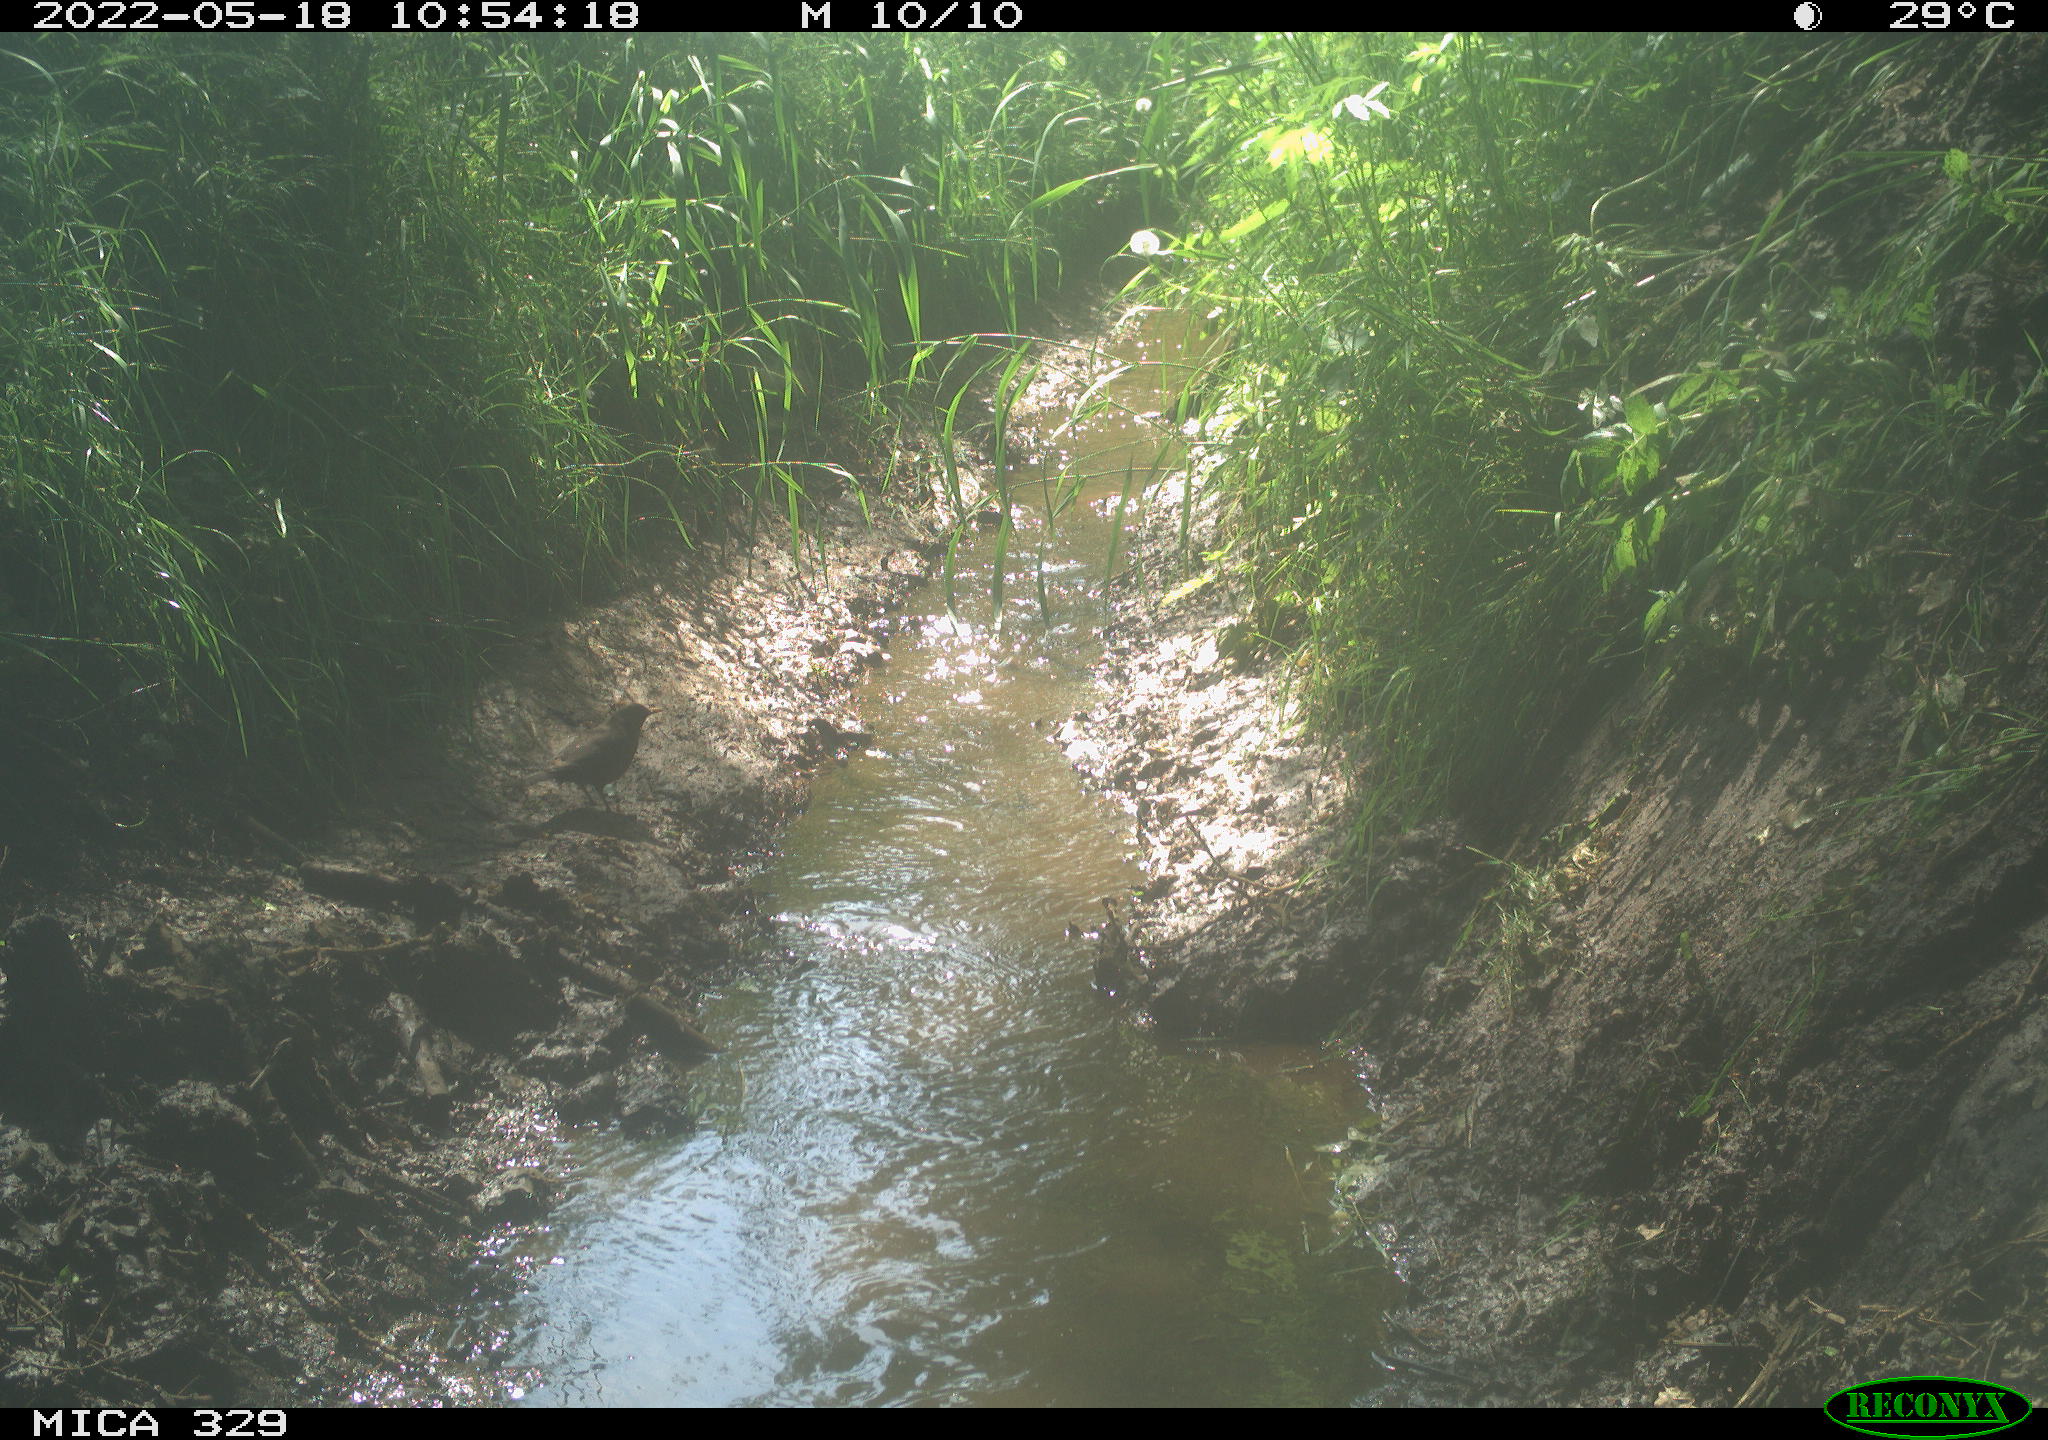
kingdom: Animalia
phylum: Chordata
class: Aves
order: Passeriformes
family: Turdidae
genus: Turdus
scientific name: Turdus merula
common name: Common blackbird
